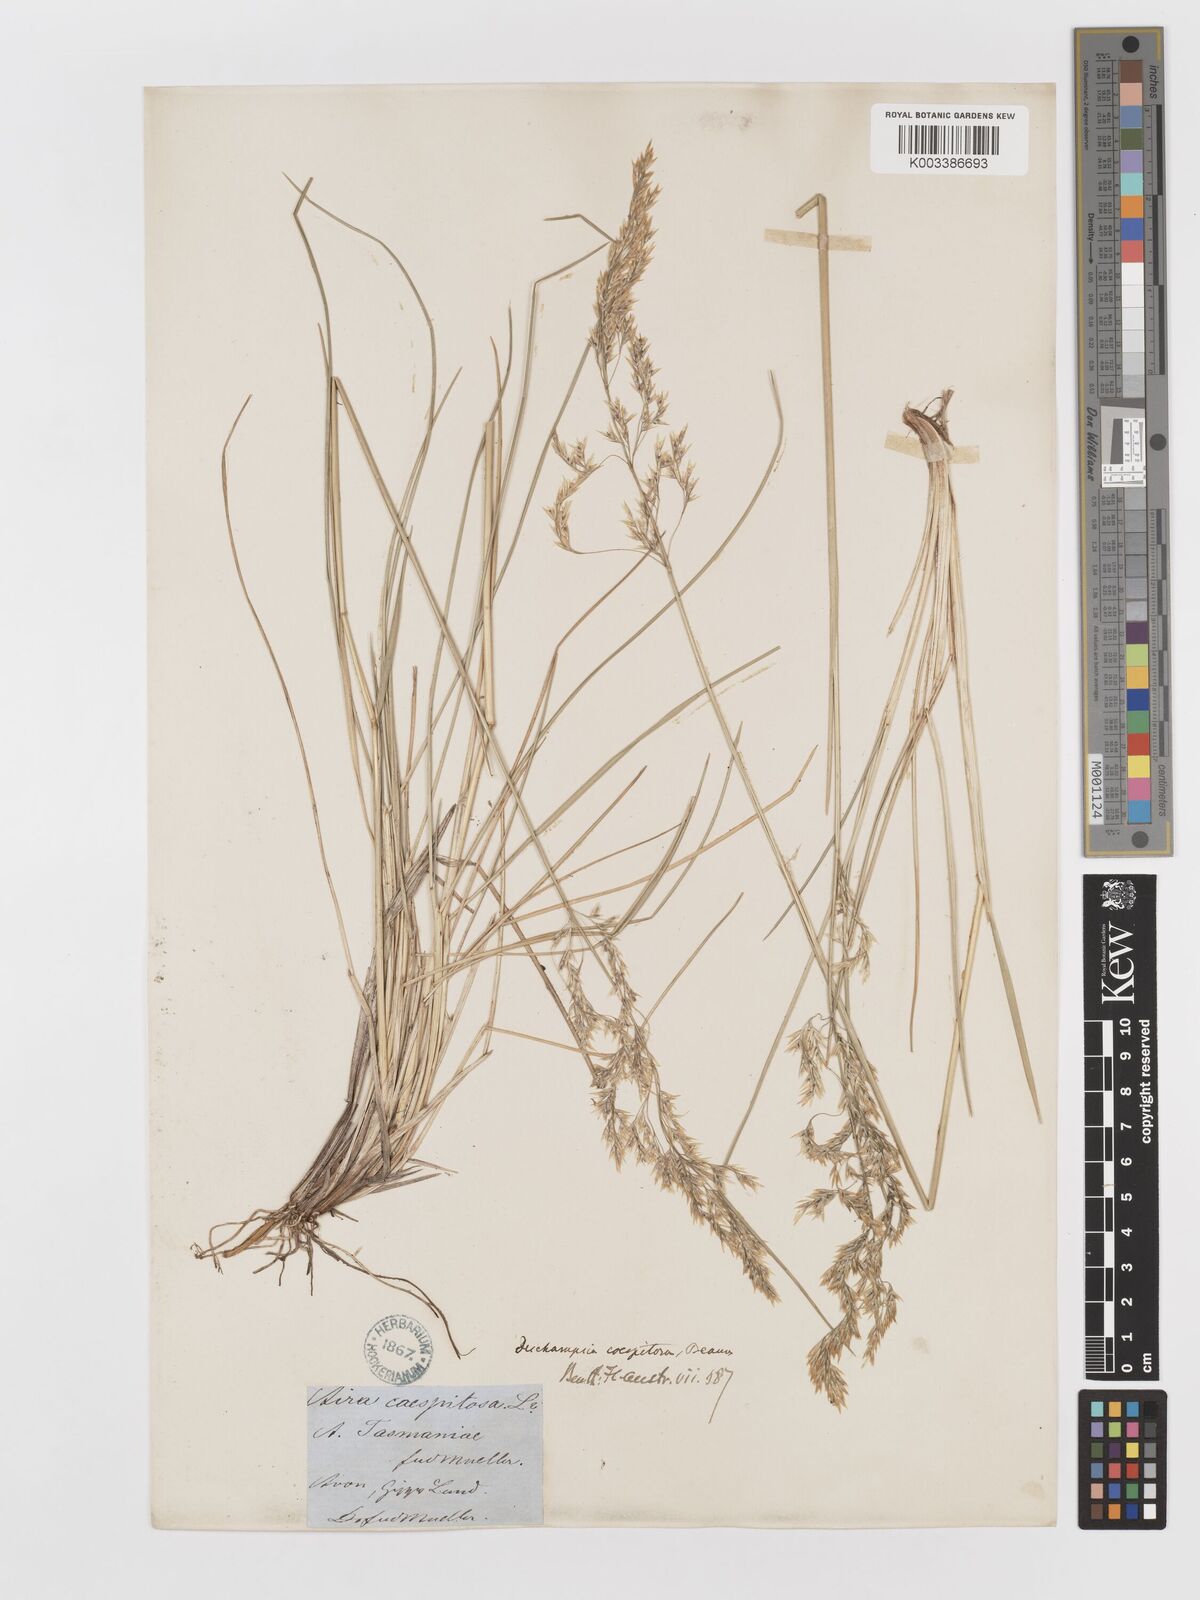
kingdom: Plantae
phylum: Tracheophyta
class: Liliopsida
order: Poales
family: Poaceae
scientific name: Poaceae
